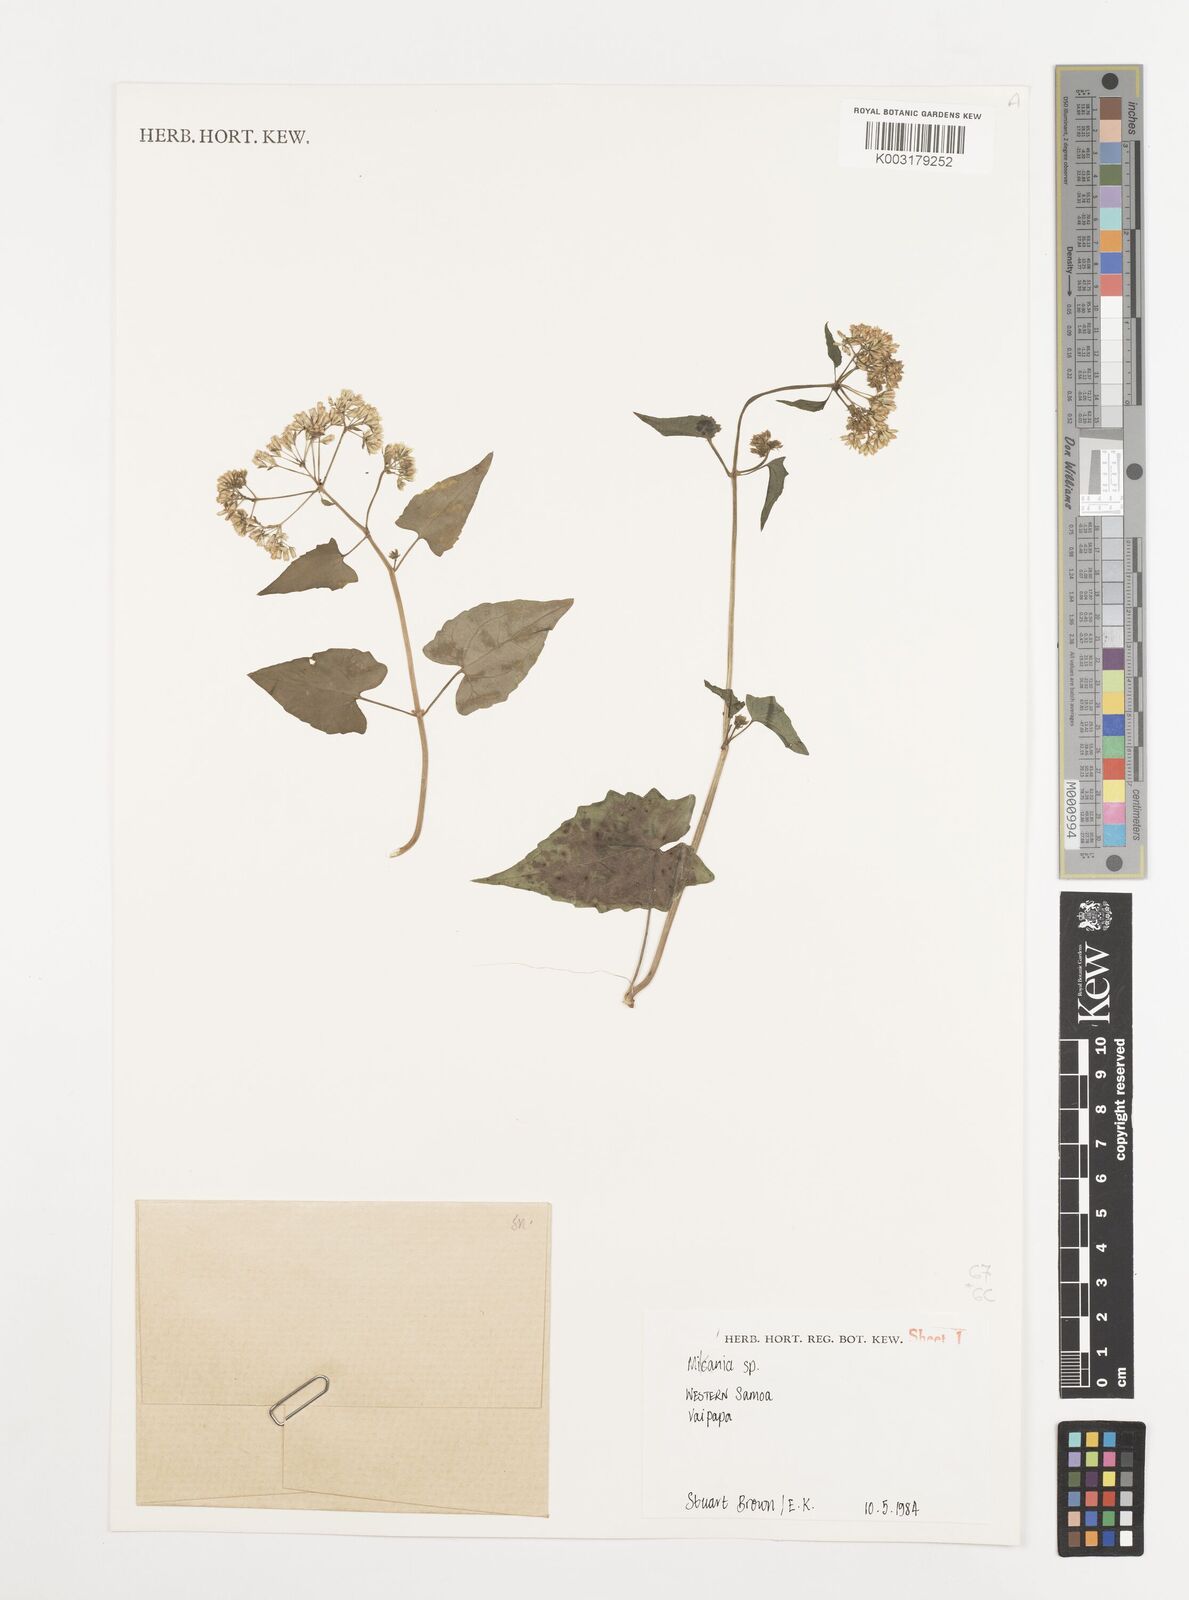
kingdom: Plantae
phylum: Tracheophyta
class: Magnoliopsida
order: Asterales
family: Asteraceae
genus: Mikania
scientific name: Mikania micrantha
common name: Mile-a-minute
